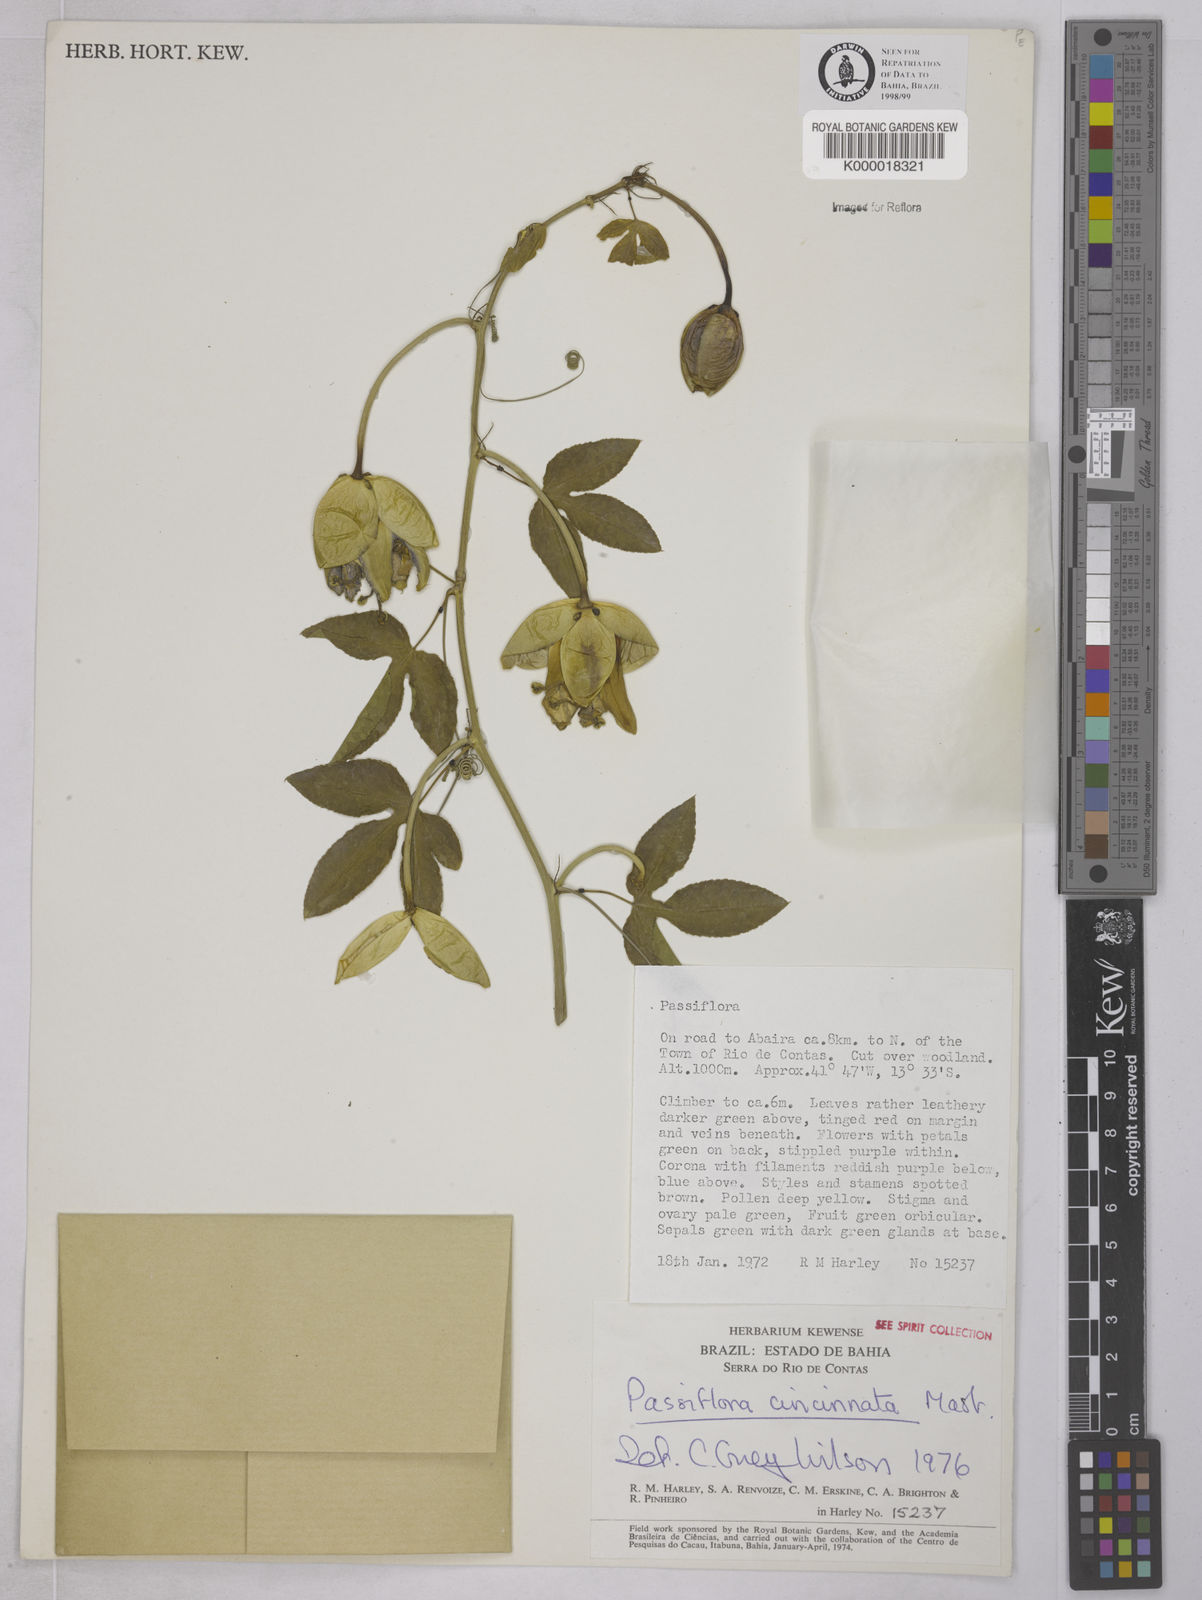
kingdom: Plantae
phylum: Tracheophyta
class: Magnoliopsida
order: Malpighiales
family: Passifloraceae
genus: Passiflora
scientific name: Passiflora cincinnata
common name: Crato passionvine
